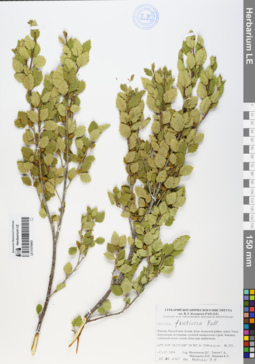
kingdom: Plantae
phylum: Tracheophyta
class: Magnoliopsida
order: Fagales
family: Betulaceae
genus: Betula
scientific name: Betula fruticosa
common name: Japanese bog birch
